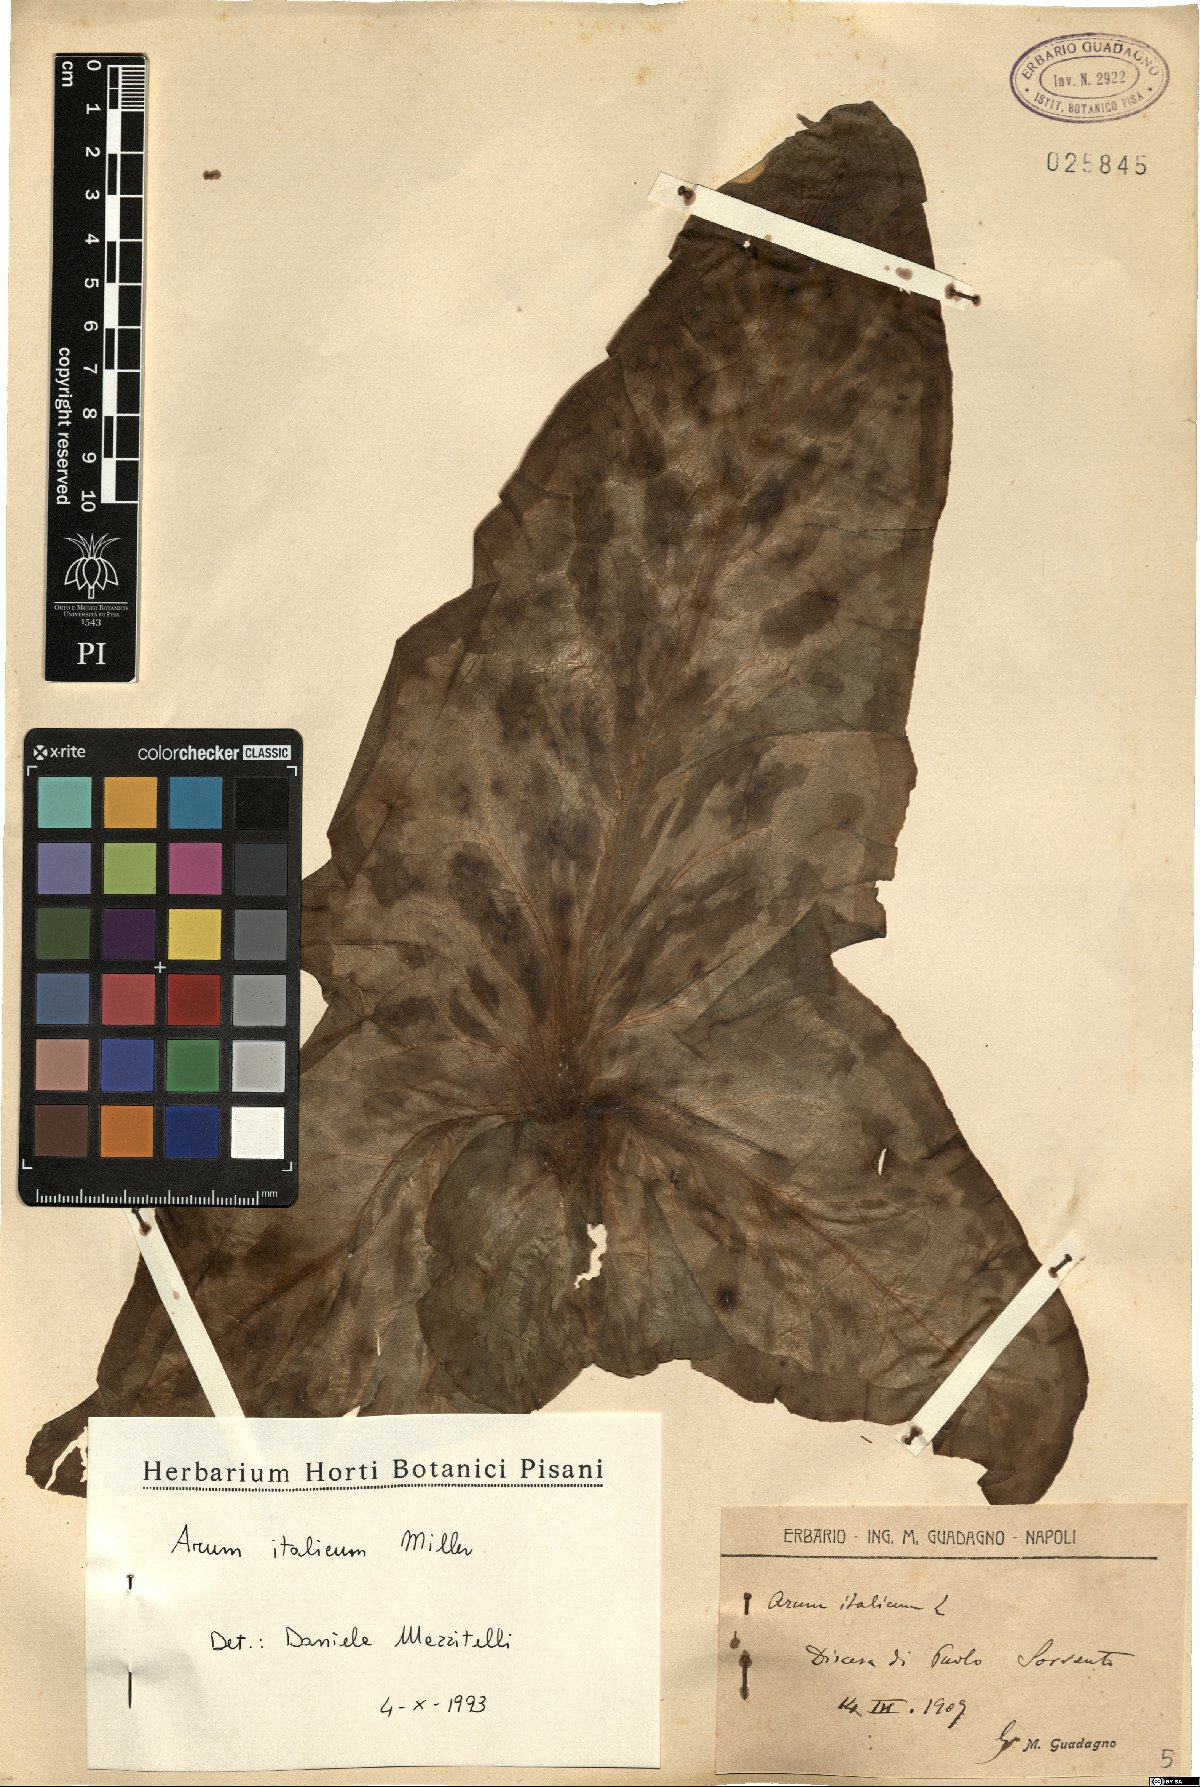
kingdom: Plantae
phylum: Tracheophyta
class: Liliopsida
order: Alismatales
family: Araceae
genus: Arum
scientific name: Arum italicum
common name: Italian lords-and-ladies
